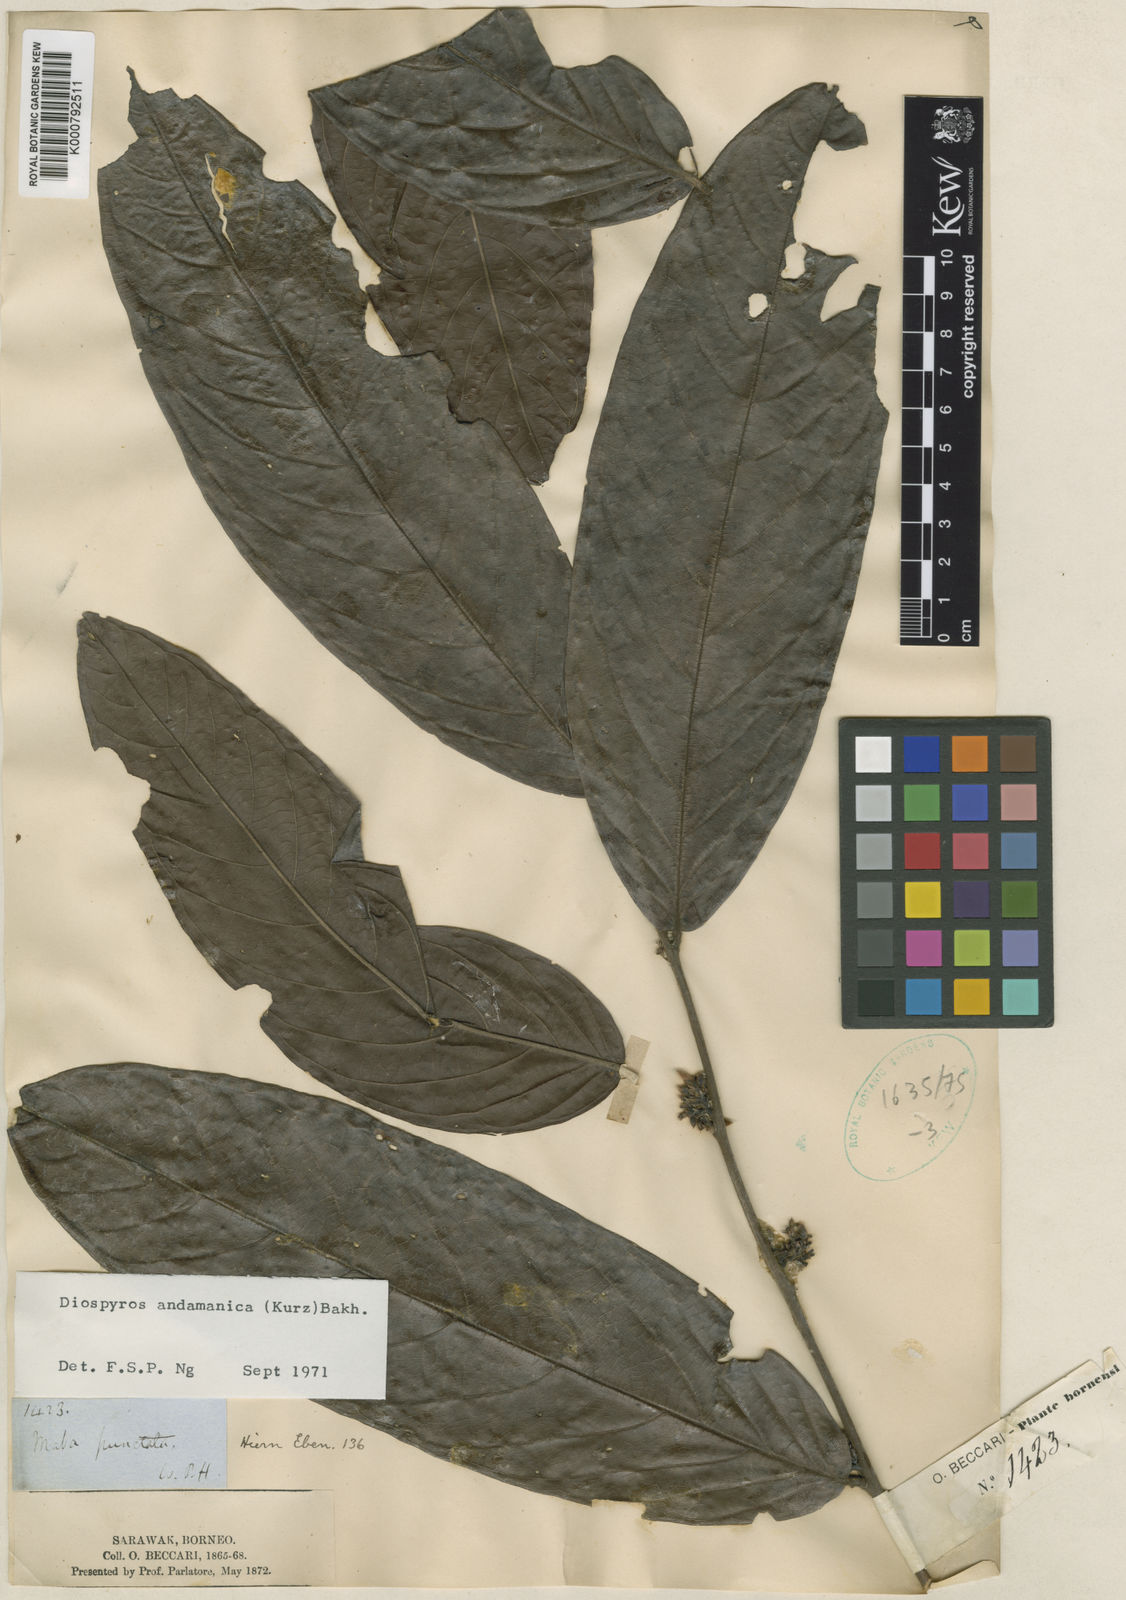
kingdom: Plantae
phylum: Tracheophyta
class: Magnoliopsida
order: Ericales
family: Ebenaceae
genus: Diospyros
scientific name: Diospyros confertiflora
